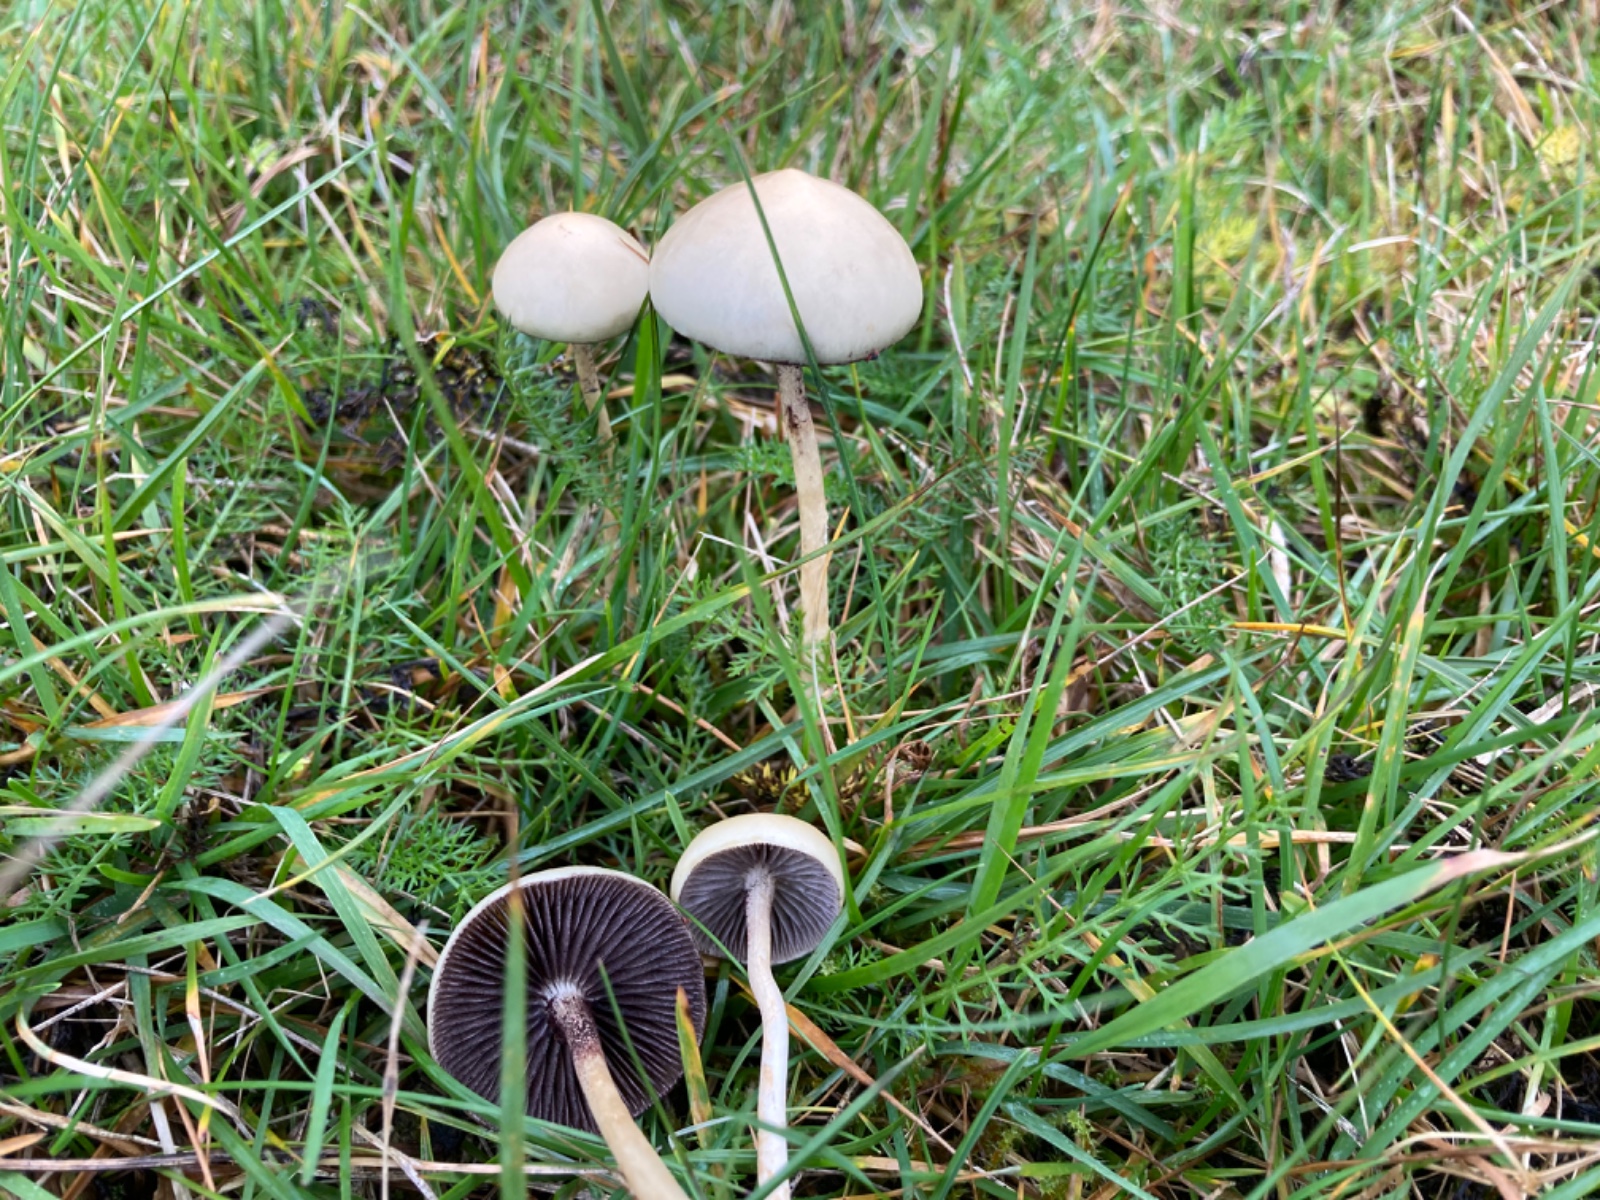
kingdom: Fungi
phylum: Basidiomycota
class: Agaricomycetes
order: Agaricales
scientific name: Agaricales
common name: champignonordenen
